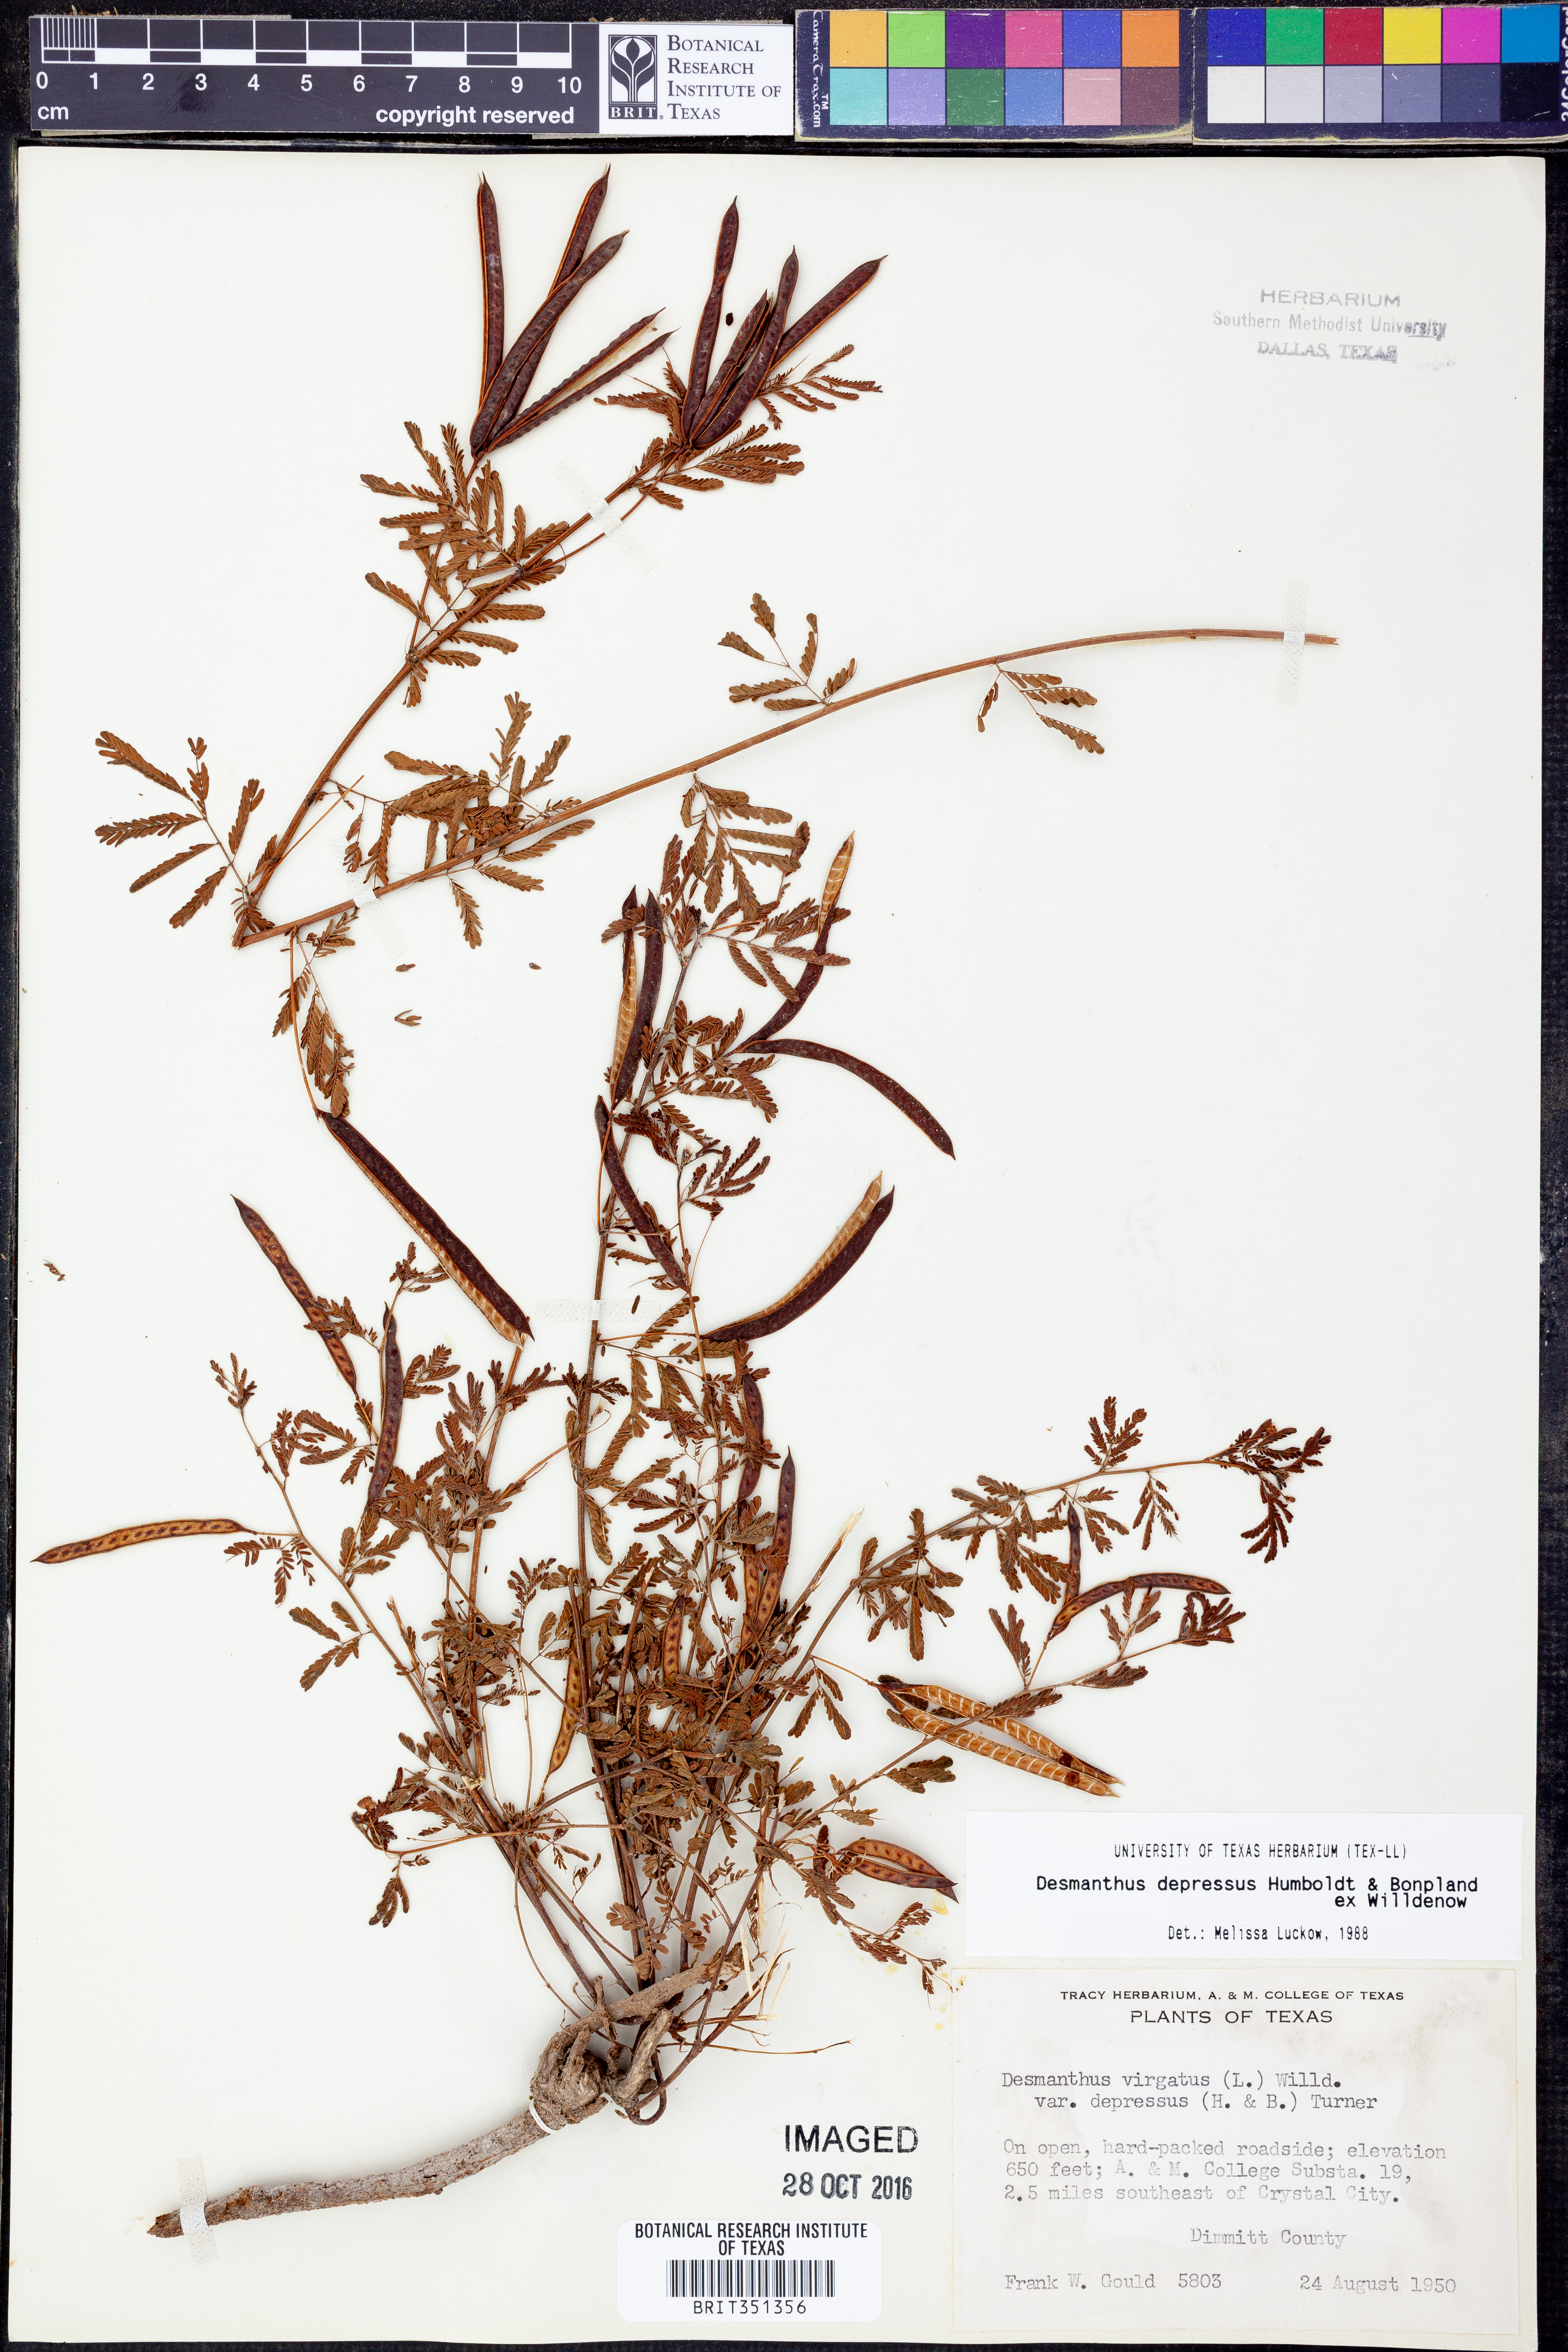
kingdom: Plantae
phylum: Tracheophyta
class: Magnoliopsida
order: Fabales
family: Fabaceae
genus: Desmanthus
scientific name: Desmanthus virgatus
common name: Wild tantan
